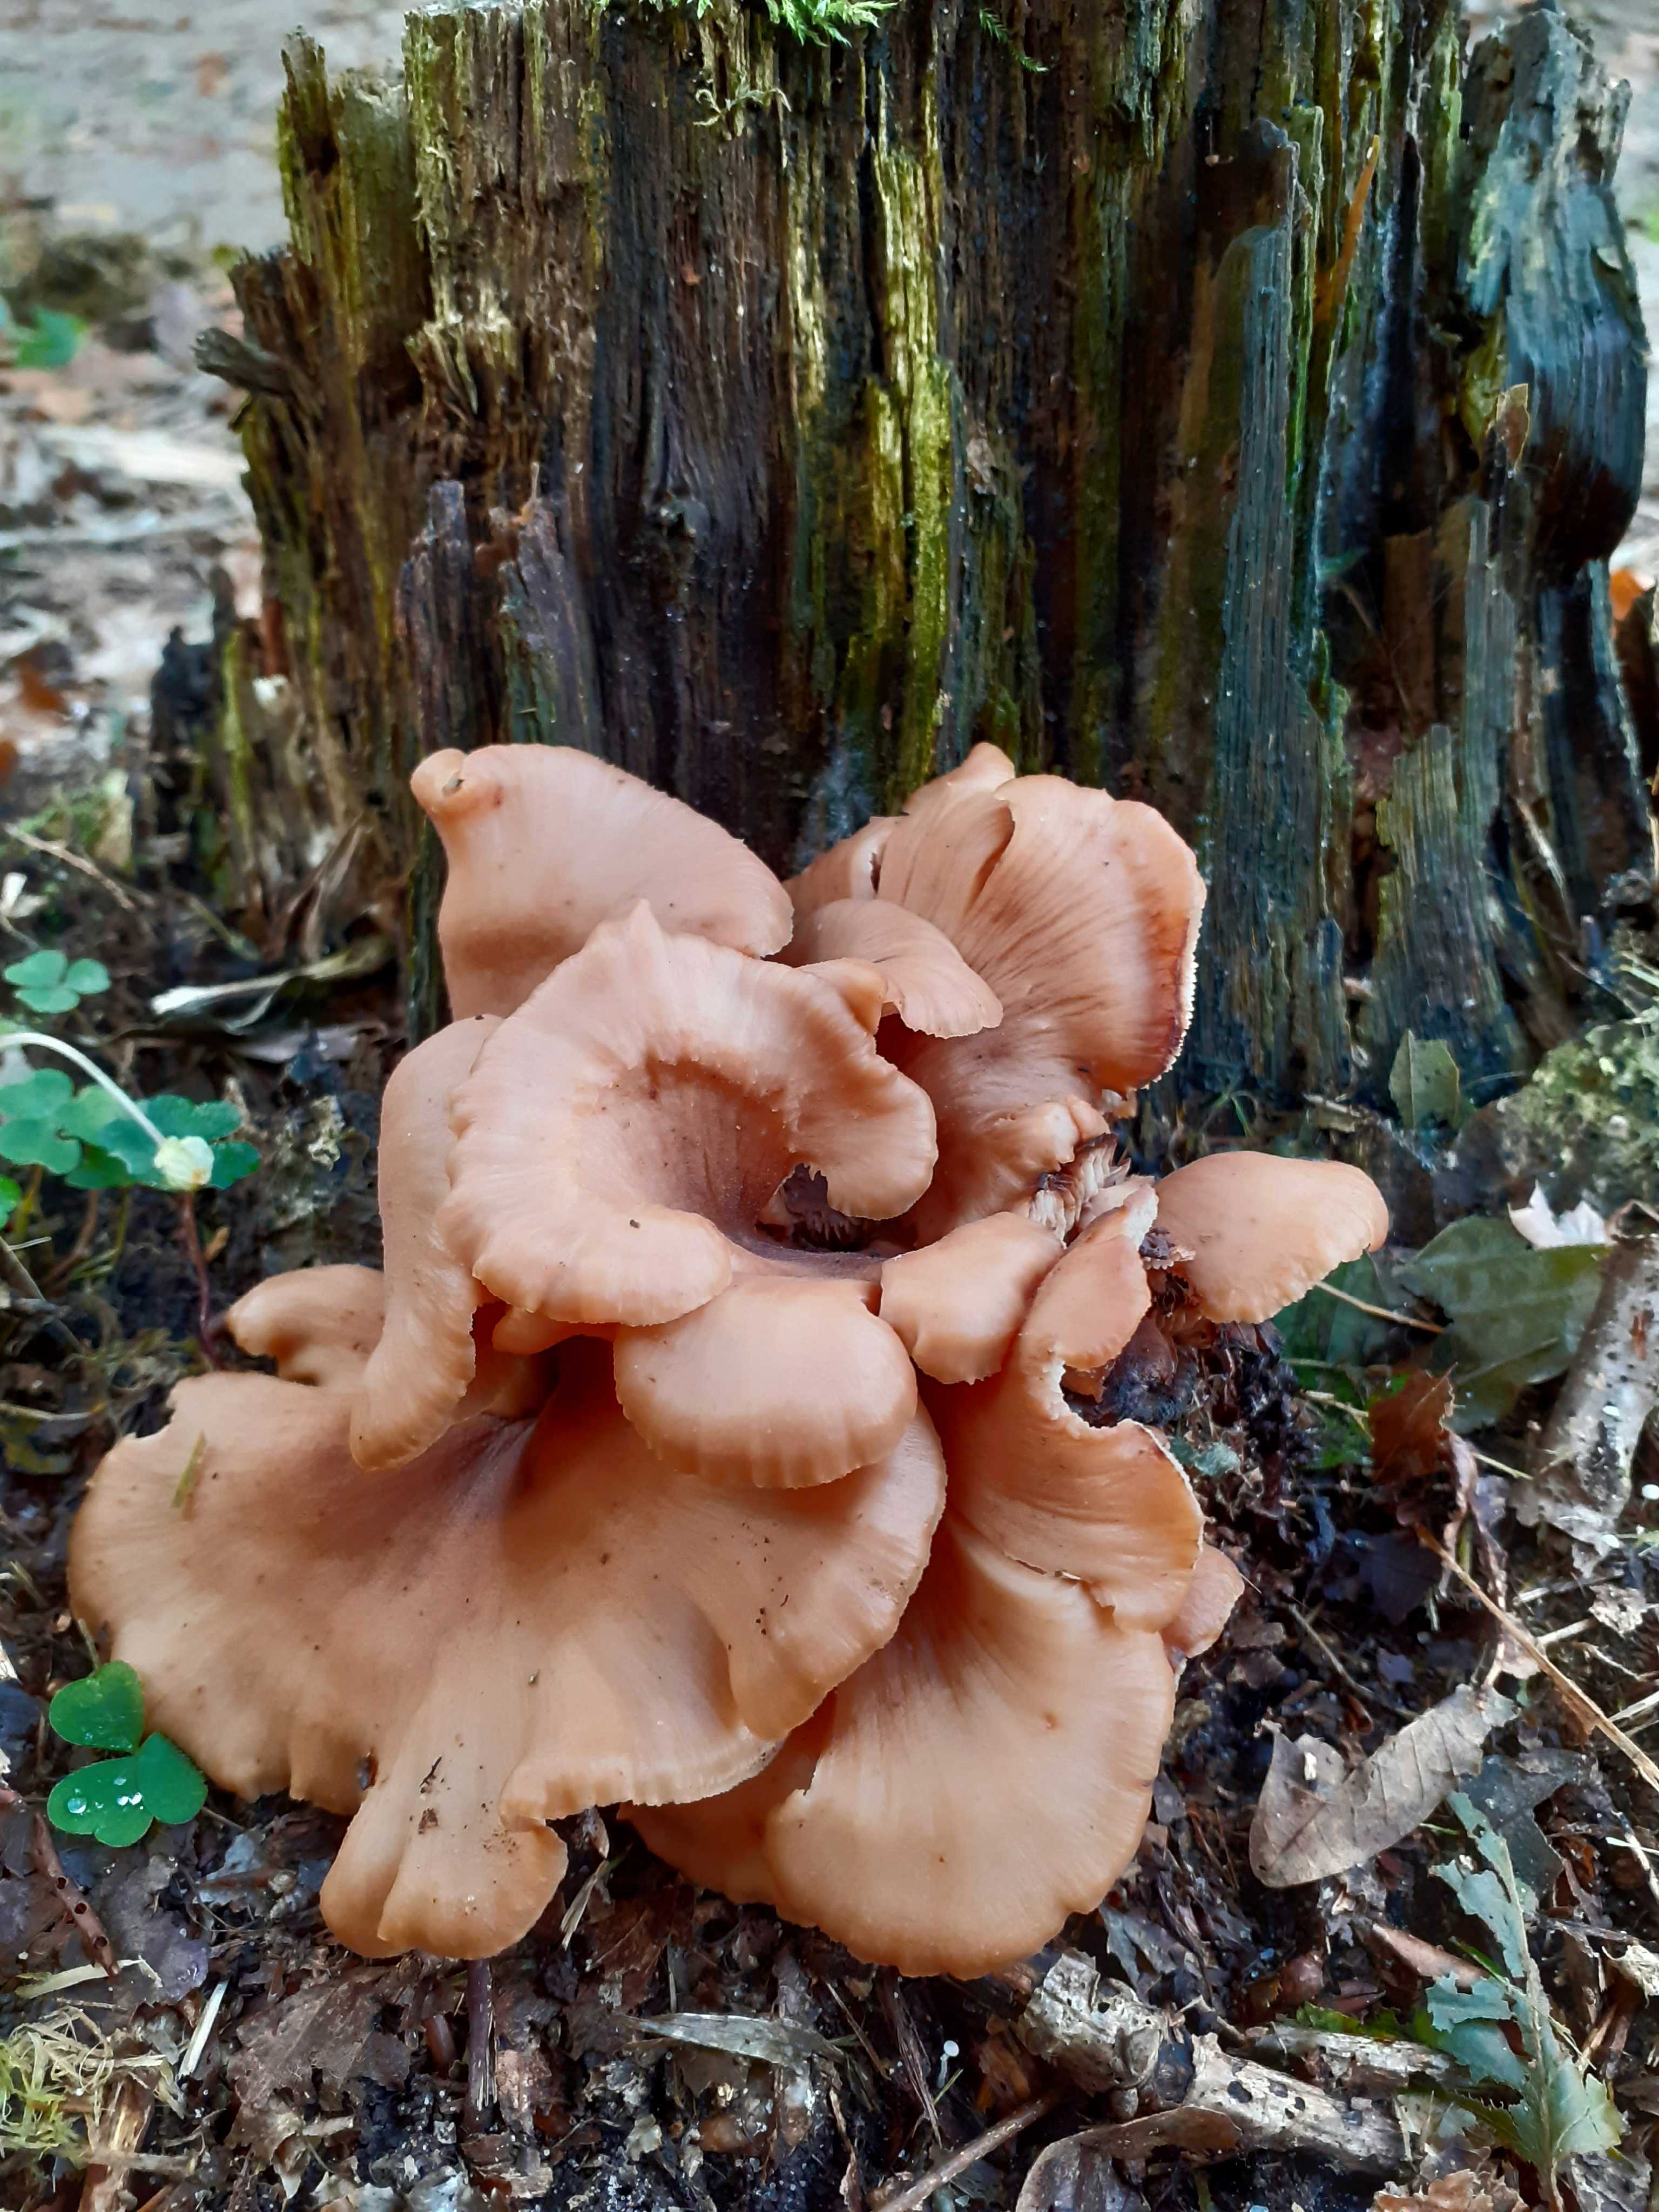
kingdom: Fungi
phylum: Basidiomycota
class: Agaricomycetes
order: Russulales
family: Auriscalpiaceae
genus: Lentinellus
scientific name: Lentinellus cochleatus
